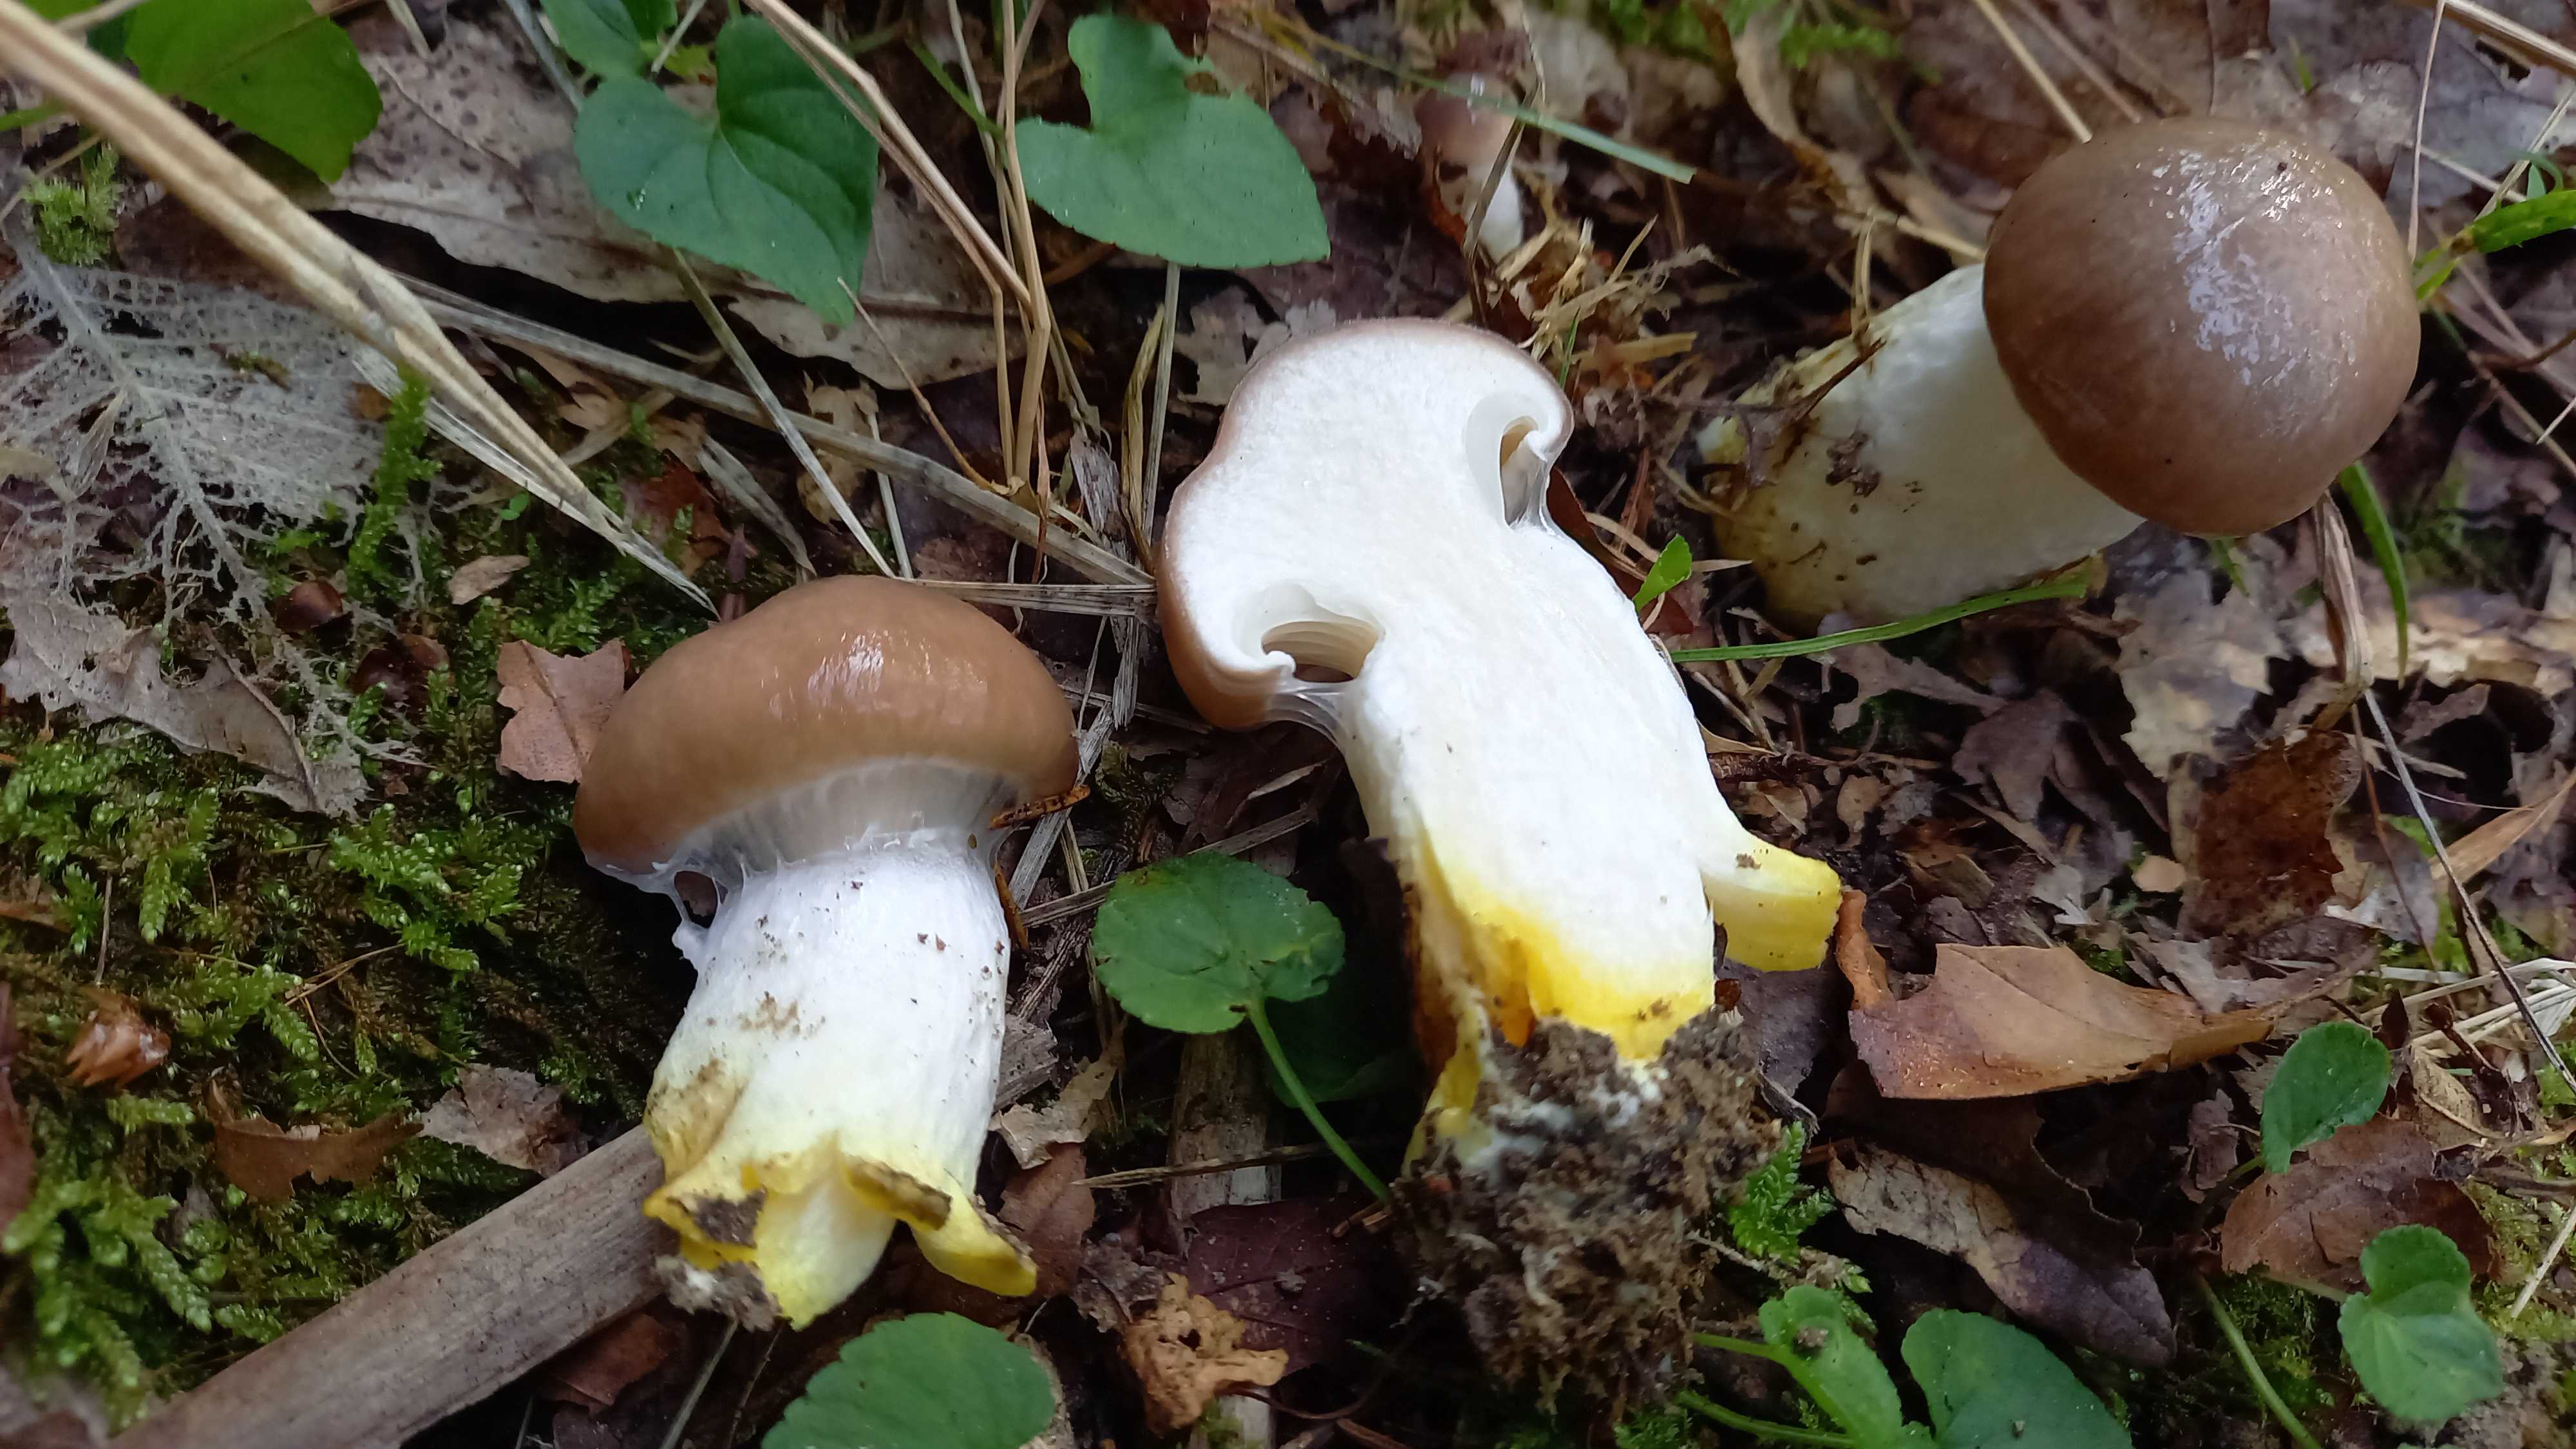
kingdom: Fungi
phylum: Basidiomycota
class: Agaricomycetes
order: Boletales
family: Gomphidiaceae
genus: Gomphidius
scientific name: Gomphidius glutinosus
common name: grå slimslør
